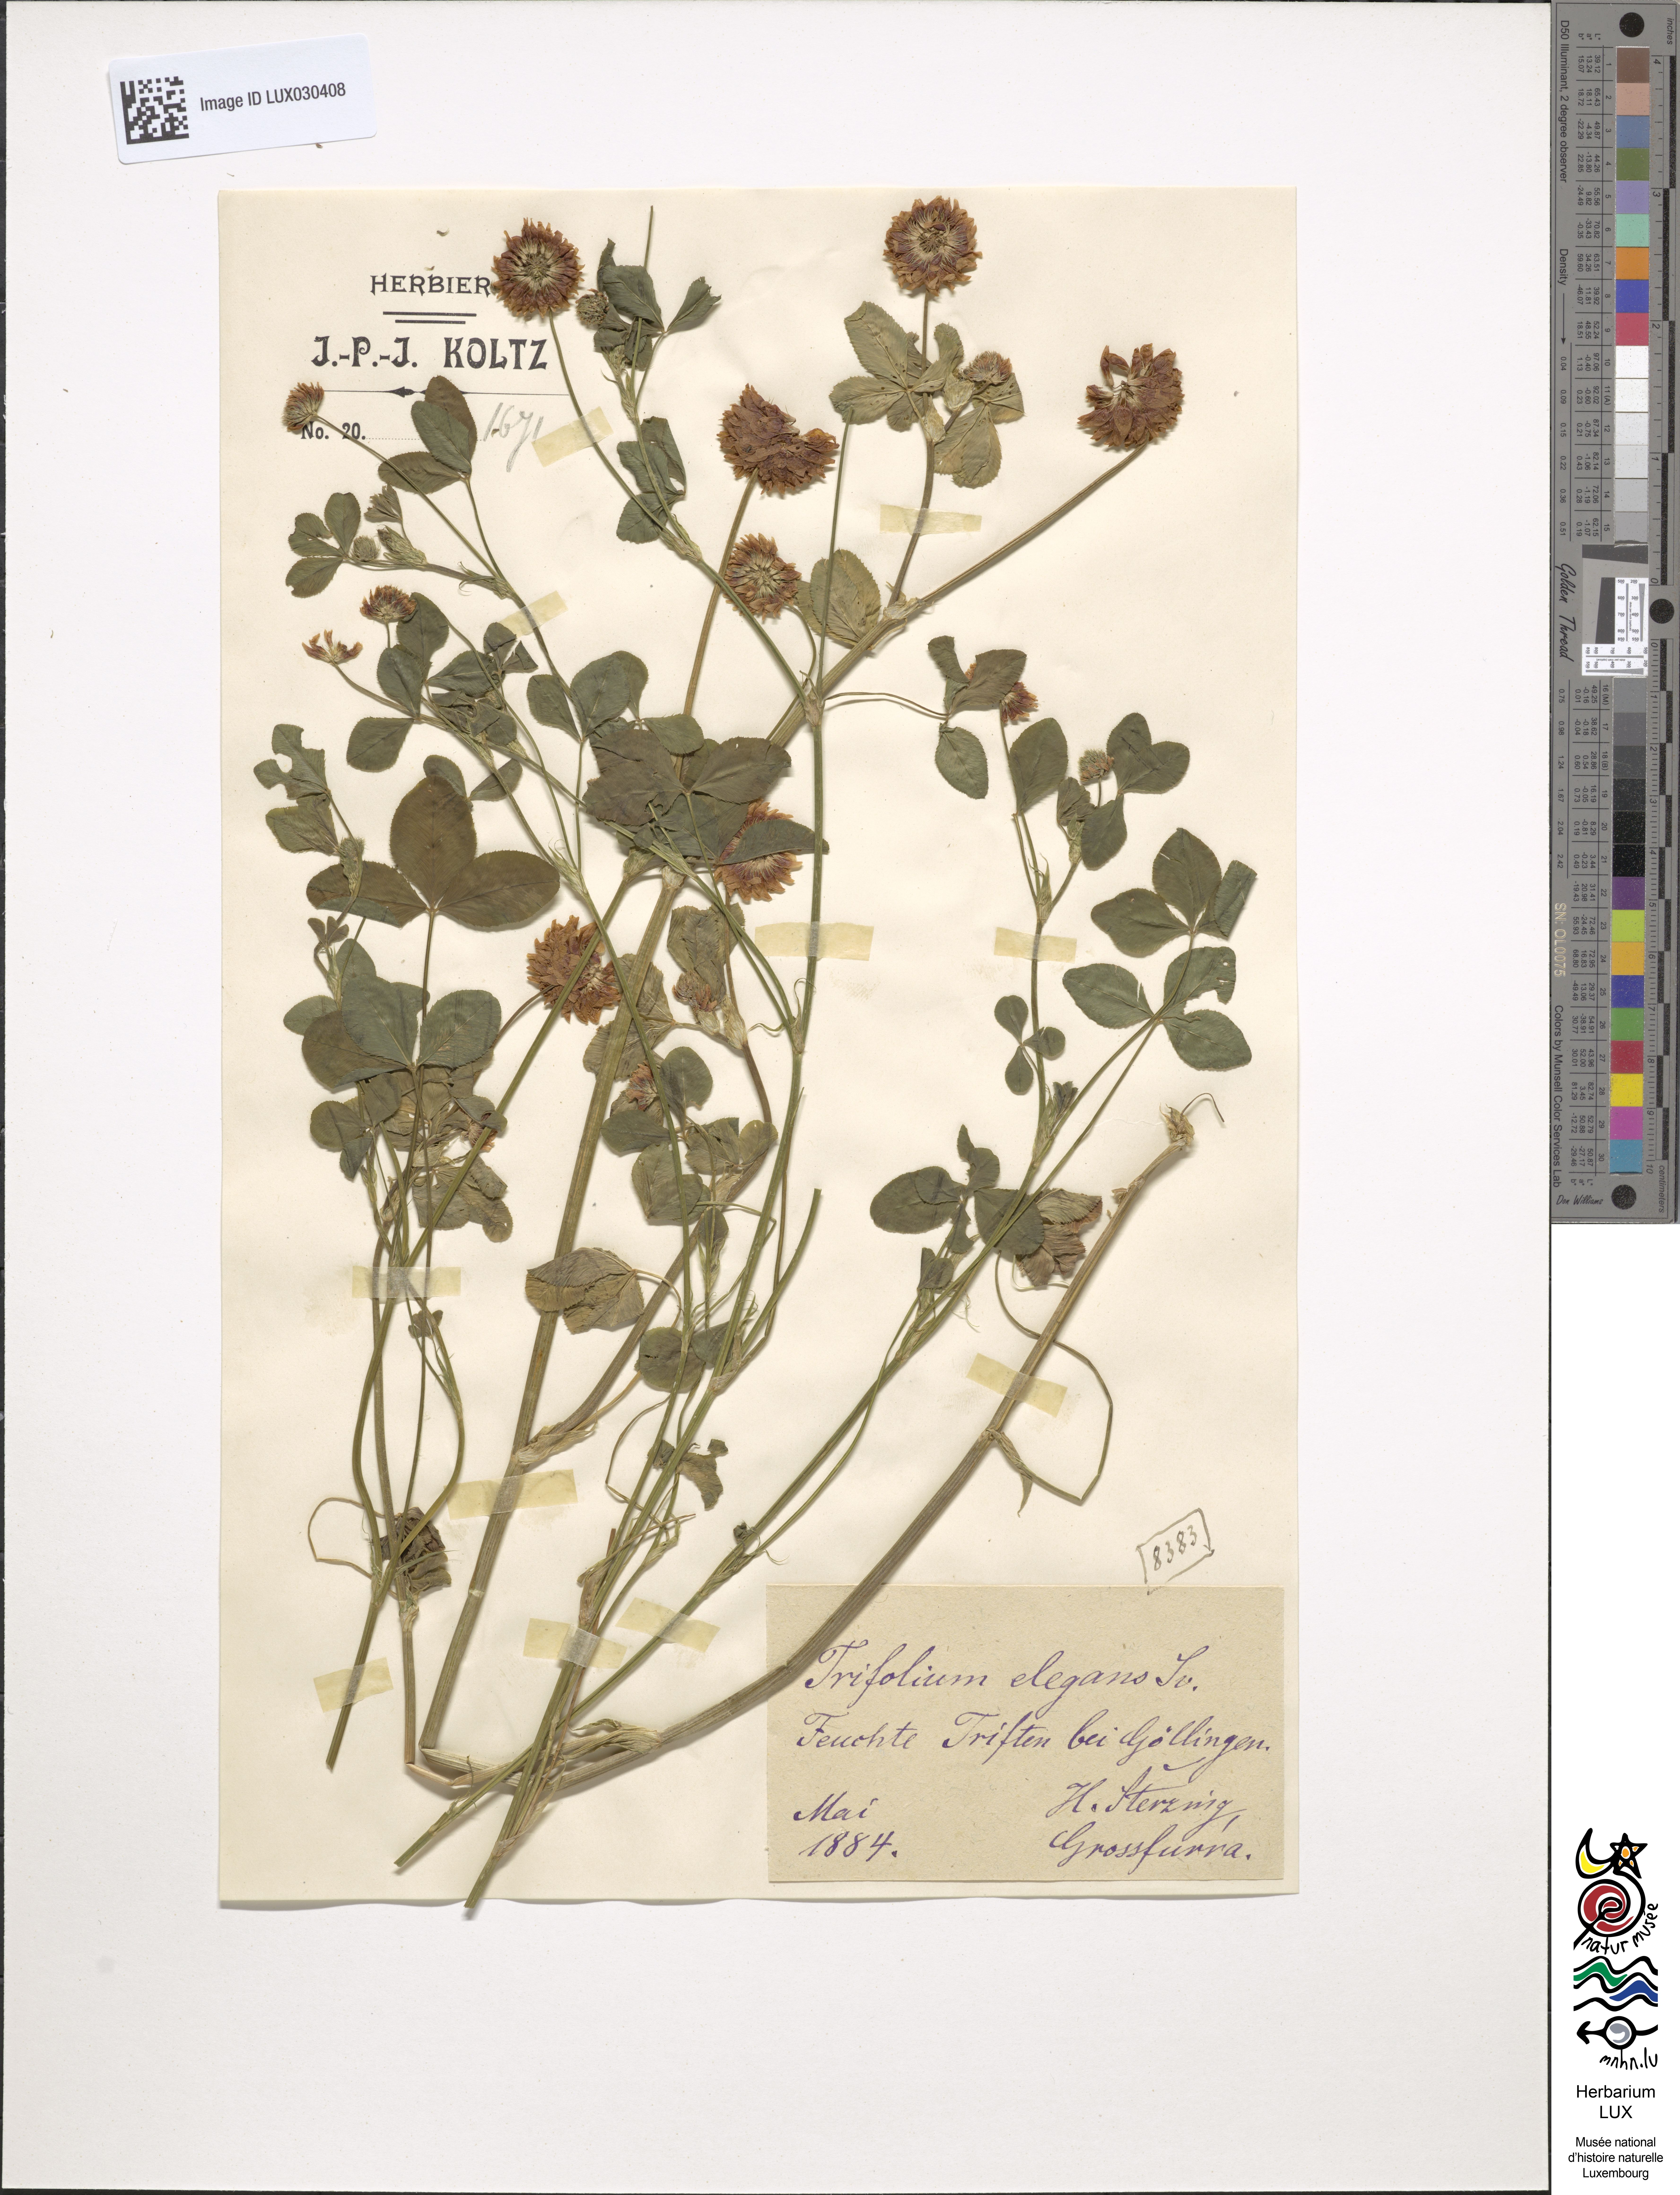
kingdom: Plantae
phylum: Tracheophyta
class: Magnoliopsida
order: Fabales
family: Fabaceae
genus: Trifolium
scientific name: Trifolium hybridum
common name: Alsike clover
